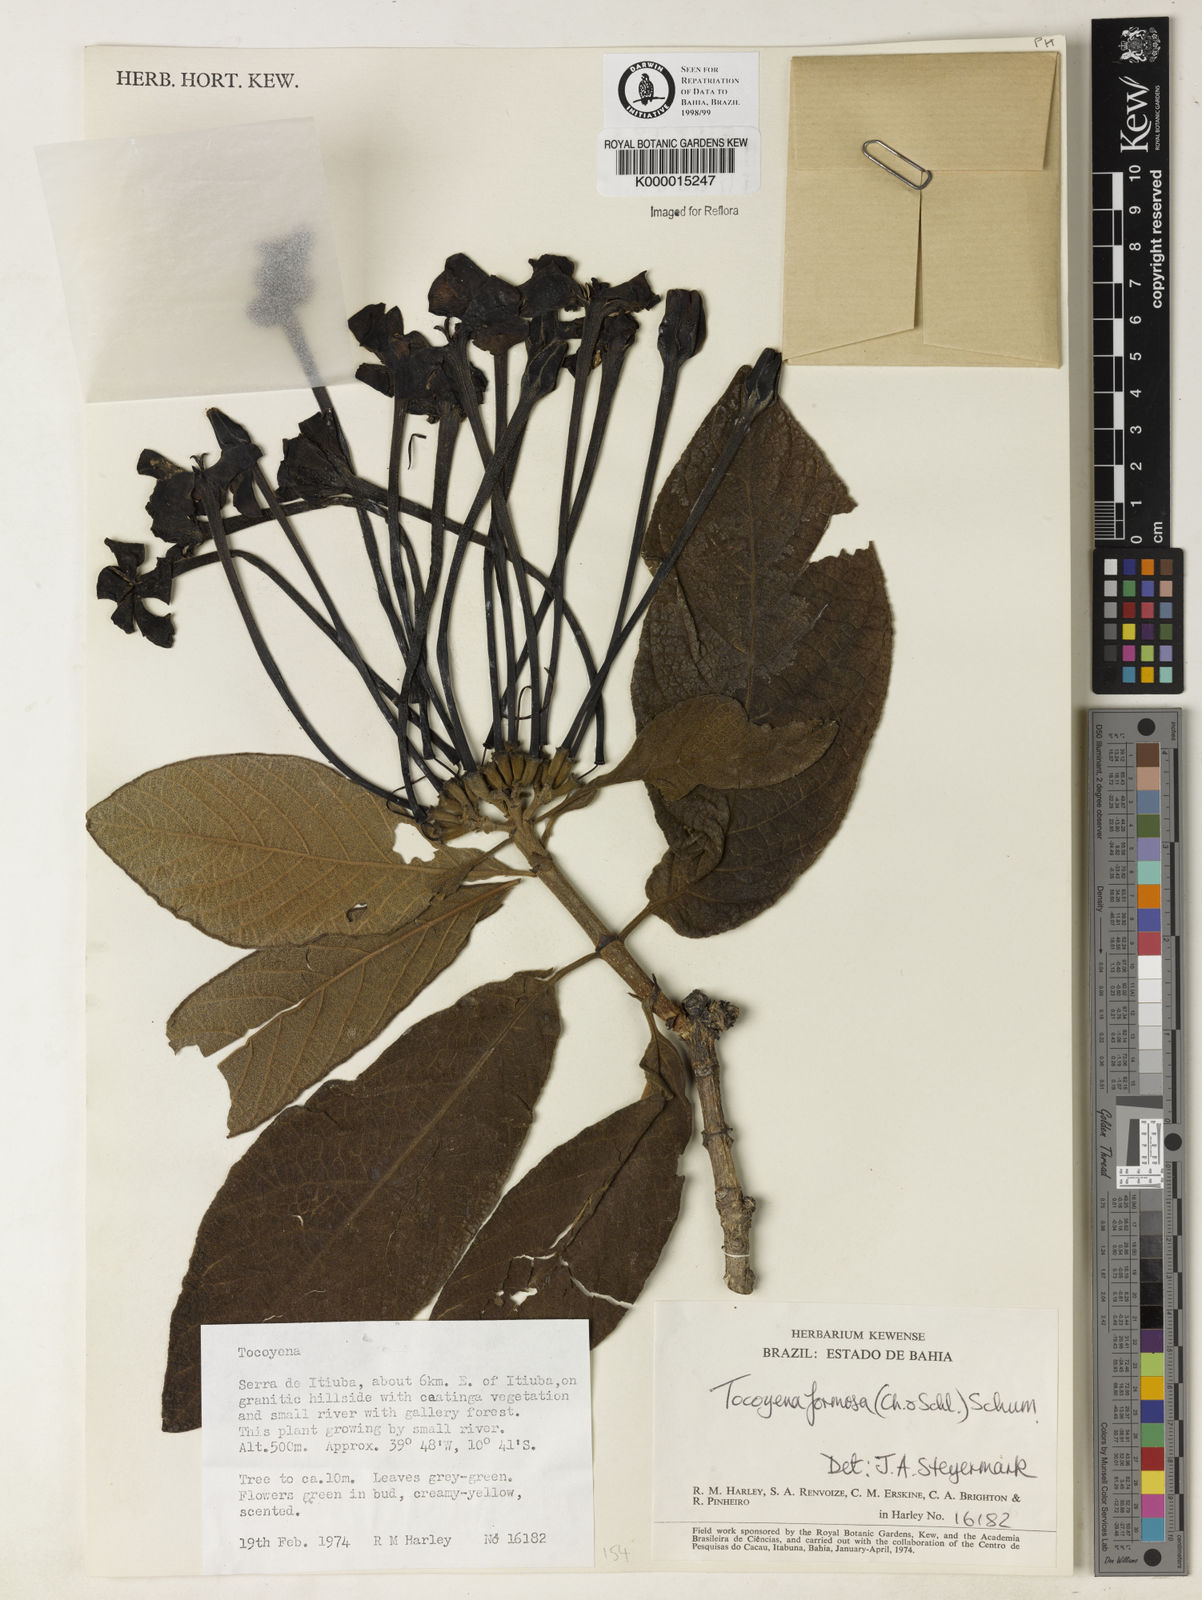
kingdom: Plantae
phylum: Tracheophyta
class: Magnoliopsida
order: Gentianales
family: Rubiaceae
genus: Tocoyena
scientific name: Tocoyena formosa
